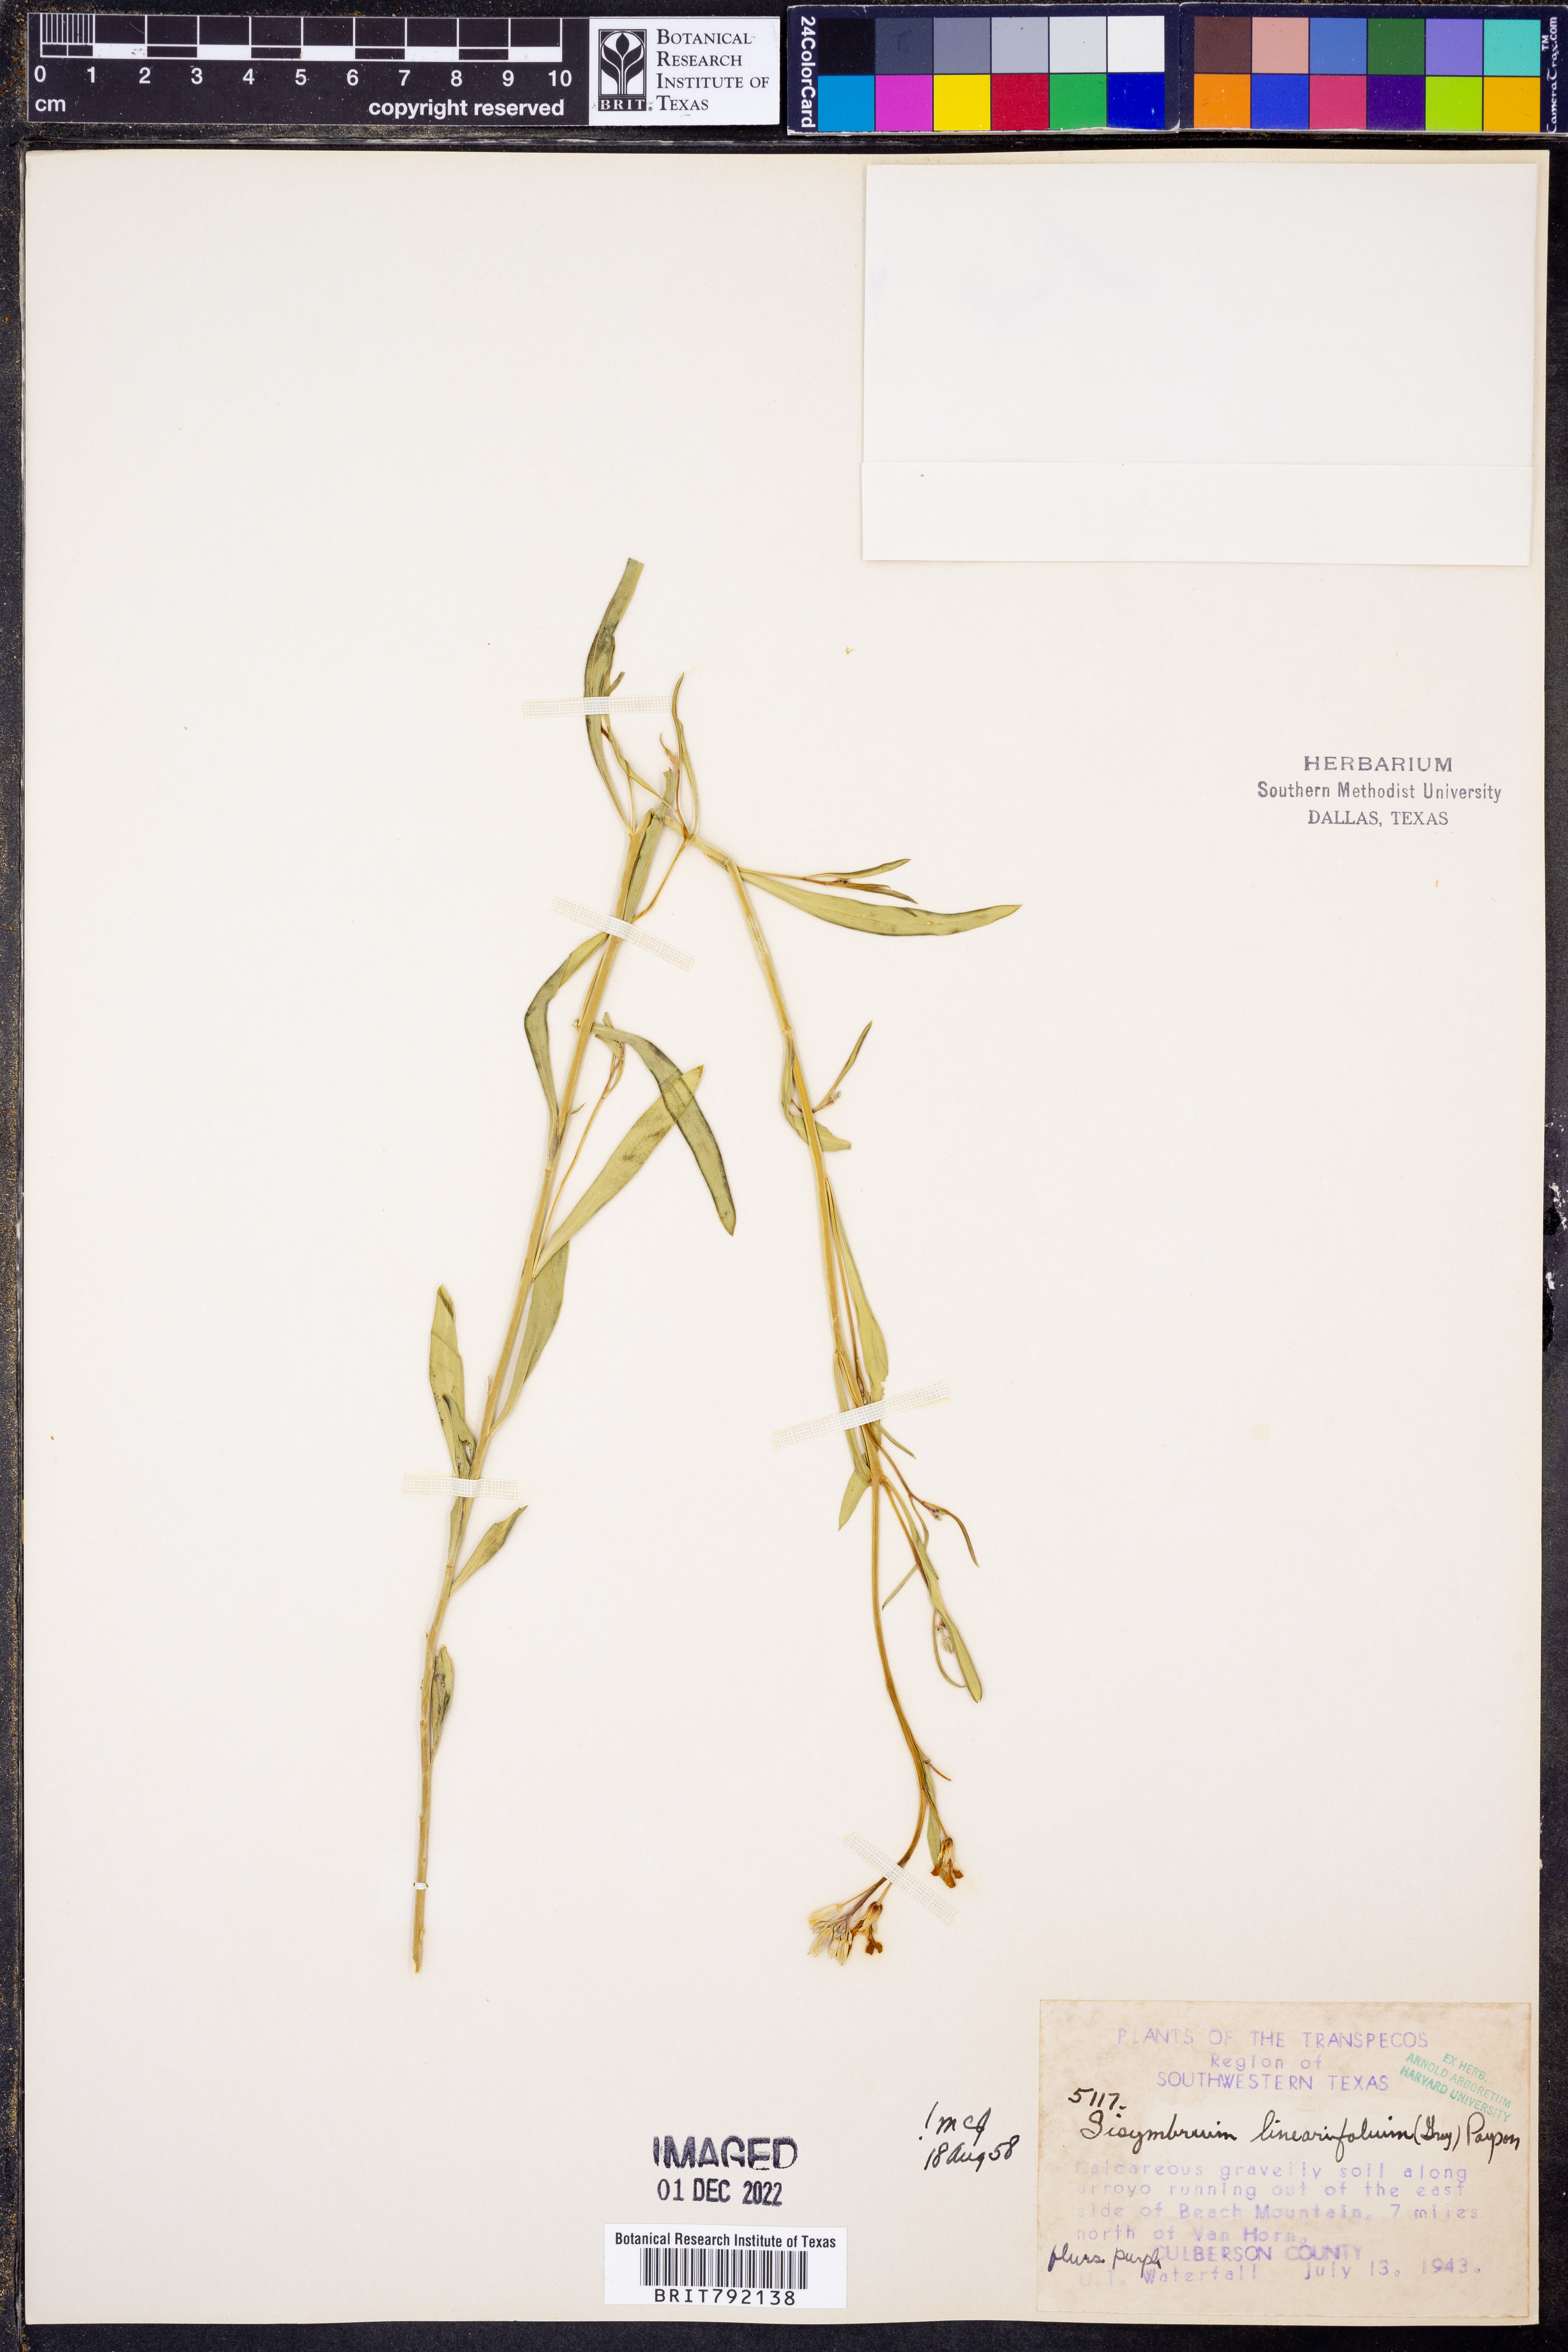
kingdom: Plantae
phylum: Tracheophyta
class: Magnoliopsida
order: Brassicales
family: Brassicaceae
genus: Hesperidanthus
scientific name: Hesperidanthus linearifolius
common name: Slim-leaf plains mustard
